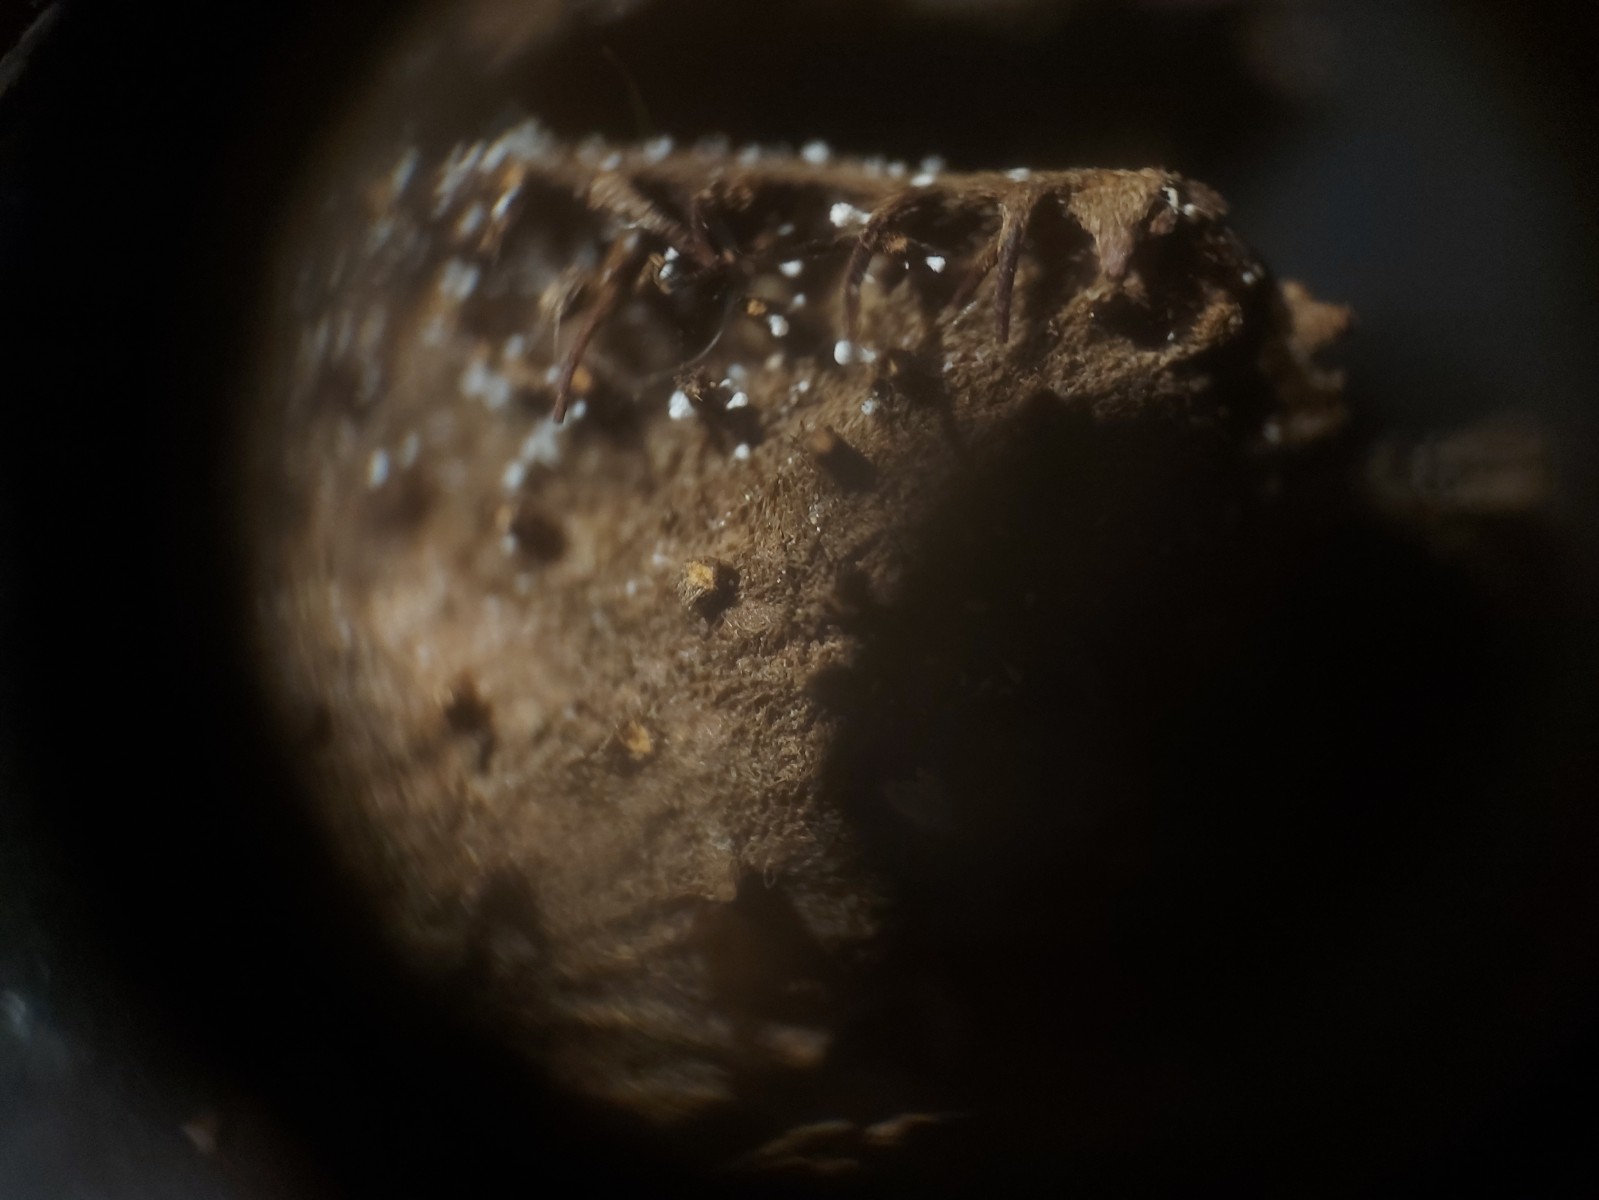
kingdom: Fungi
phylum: Ascomycota
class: Leotiomycetes
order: Helotiales
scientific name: Helotiales
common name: stilkskiveordenen
